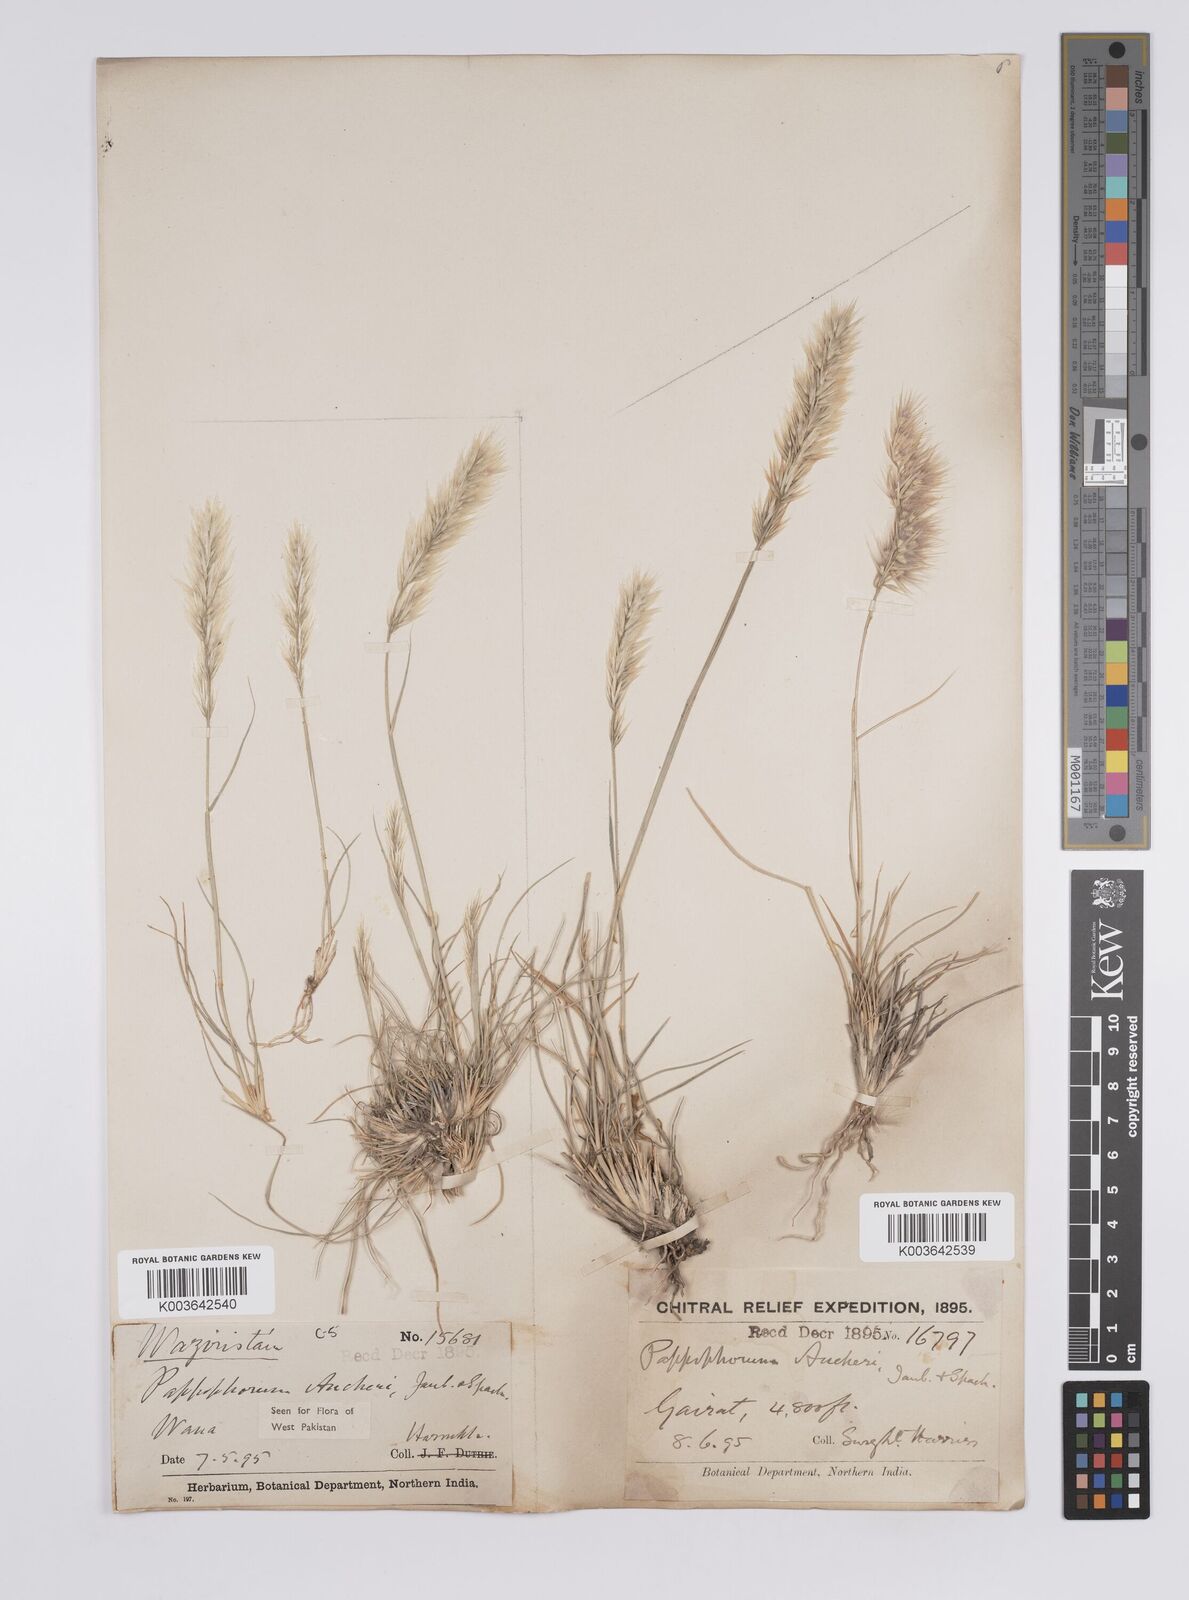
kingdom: Plantae
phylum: Tracheophyta
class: Liliopsida
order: Poales
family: Poaceae
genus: Enneapogon
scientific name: Enneapogon persicus
